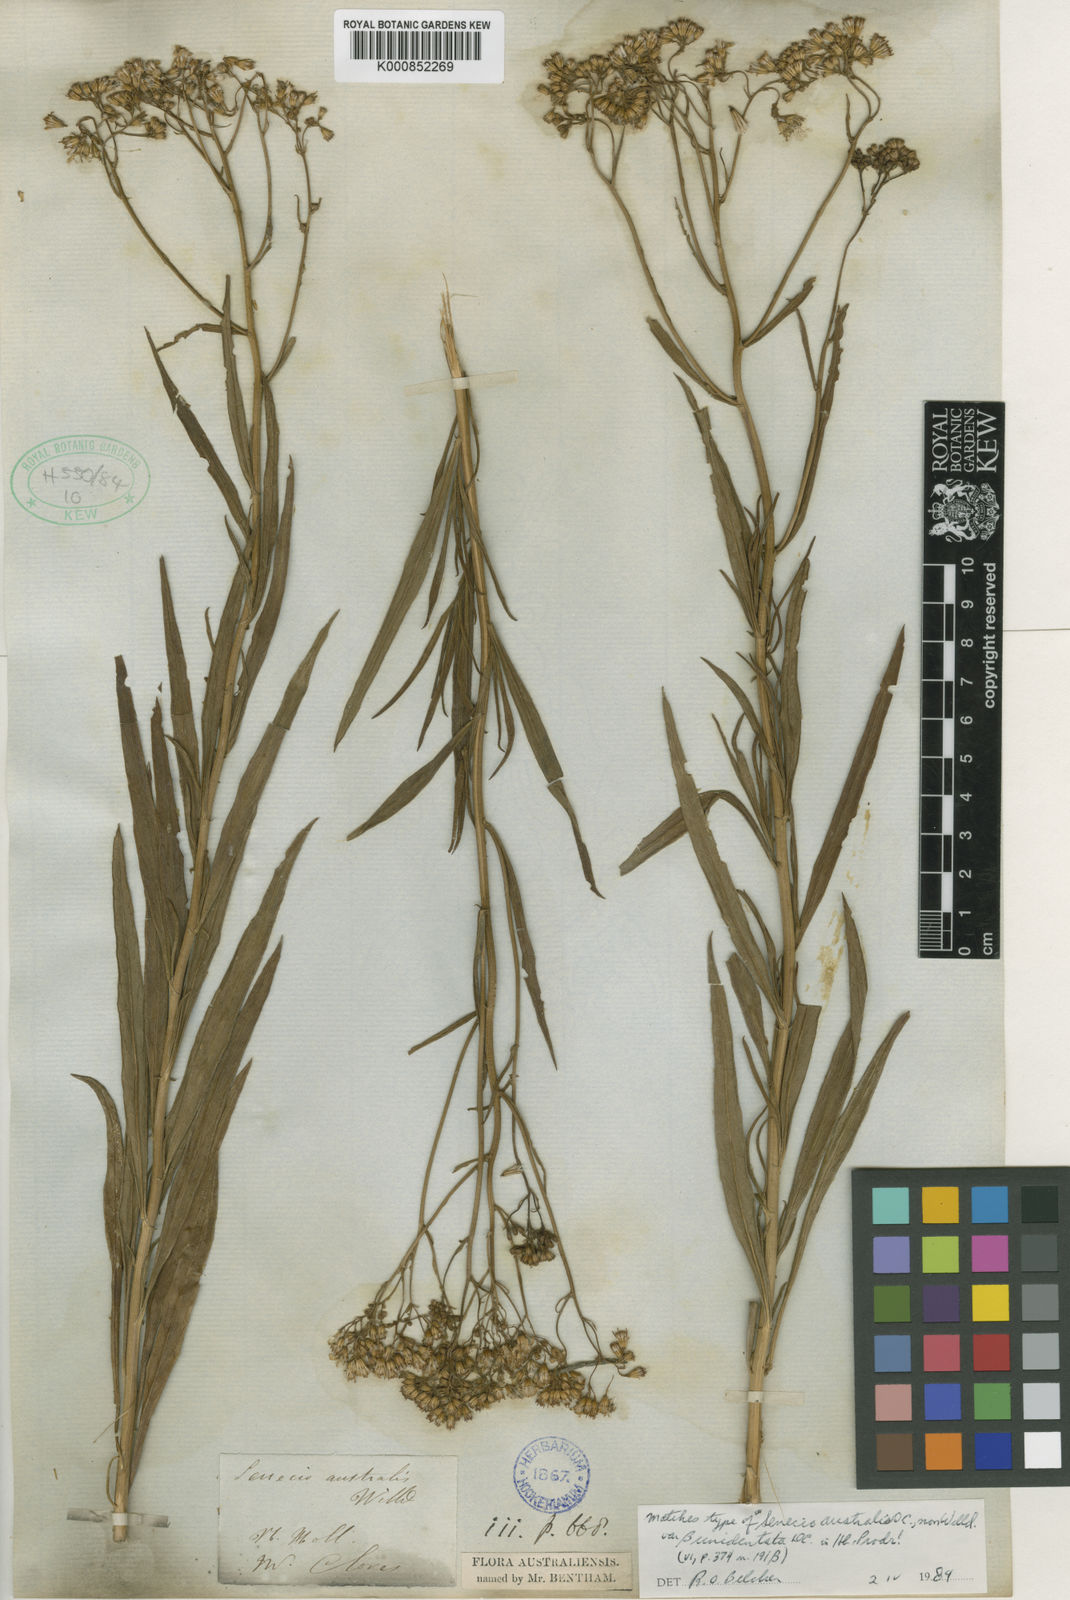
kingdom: Plantae
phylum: Tracheophyta
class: Magnoliopsida
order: Asterales
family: Asteraceae
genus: Senecio
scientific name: Senecio linearifolius
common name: Fireweed groundsel
